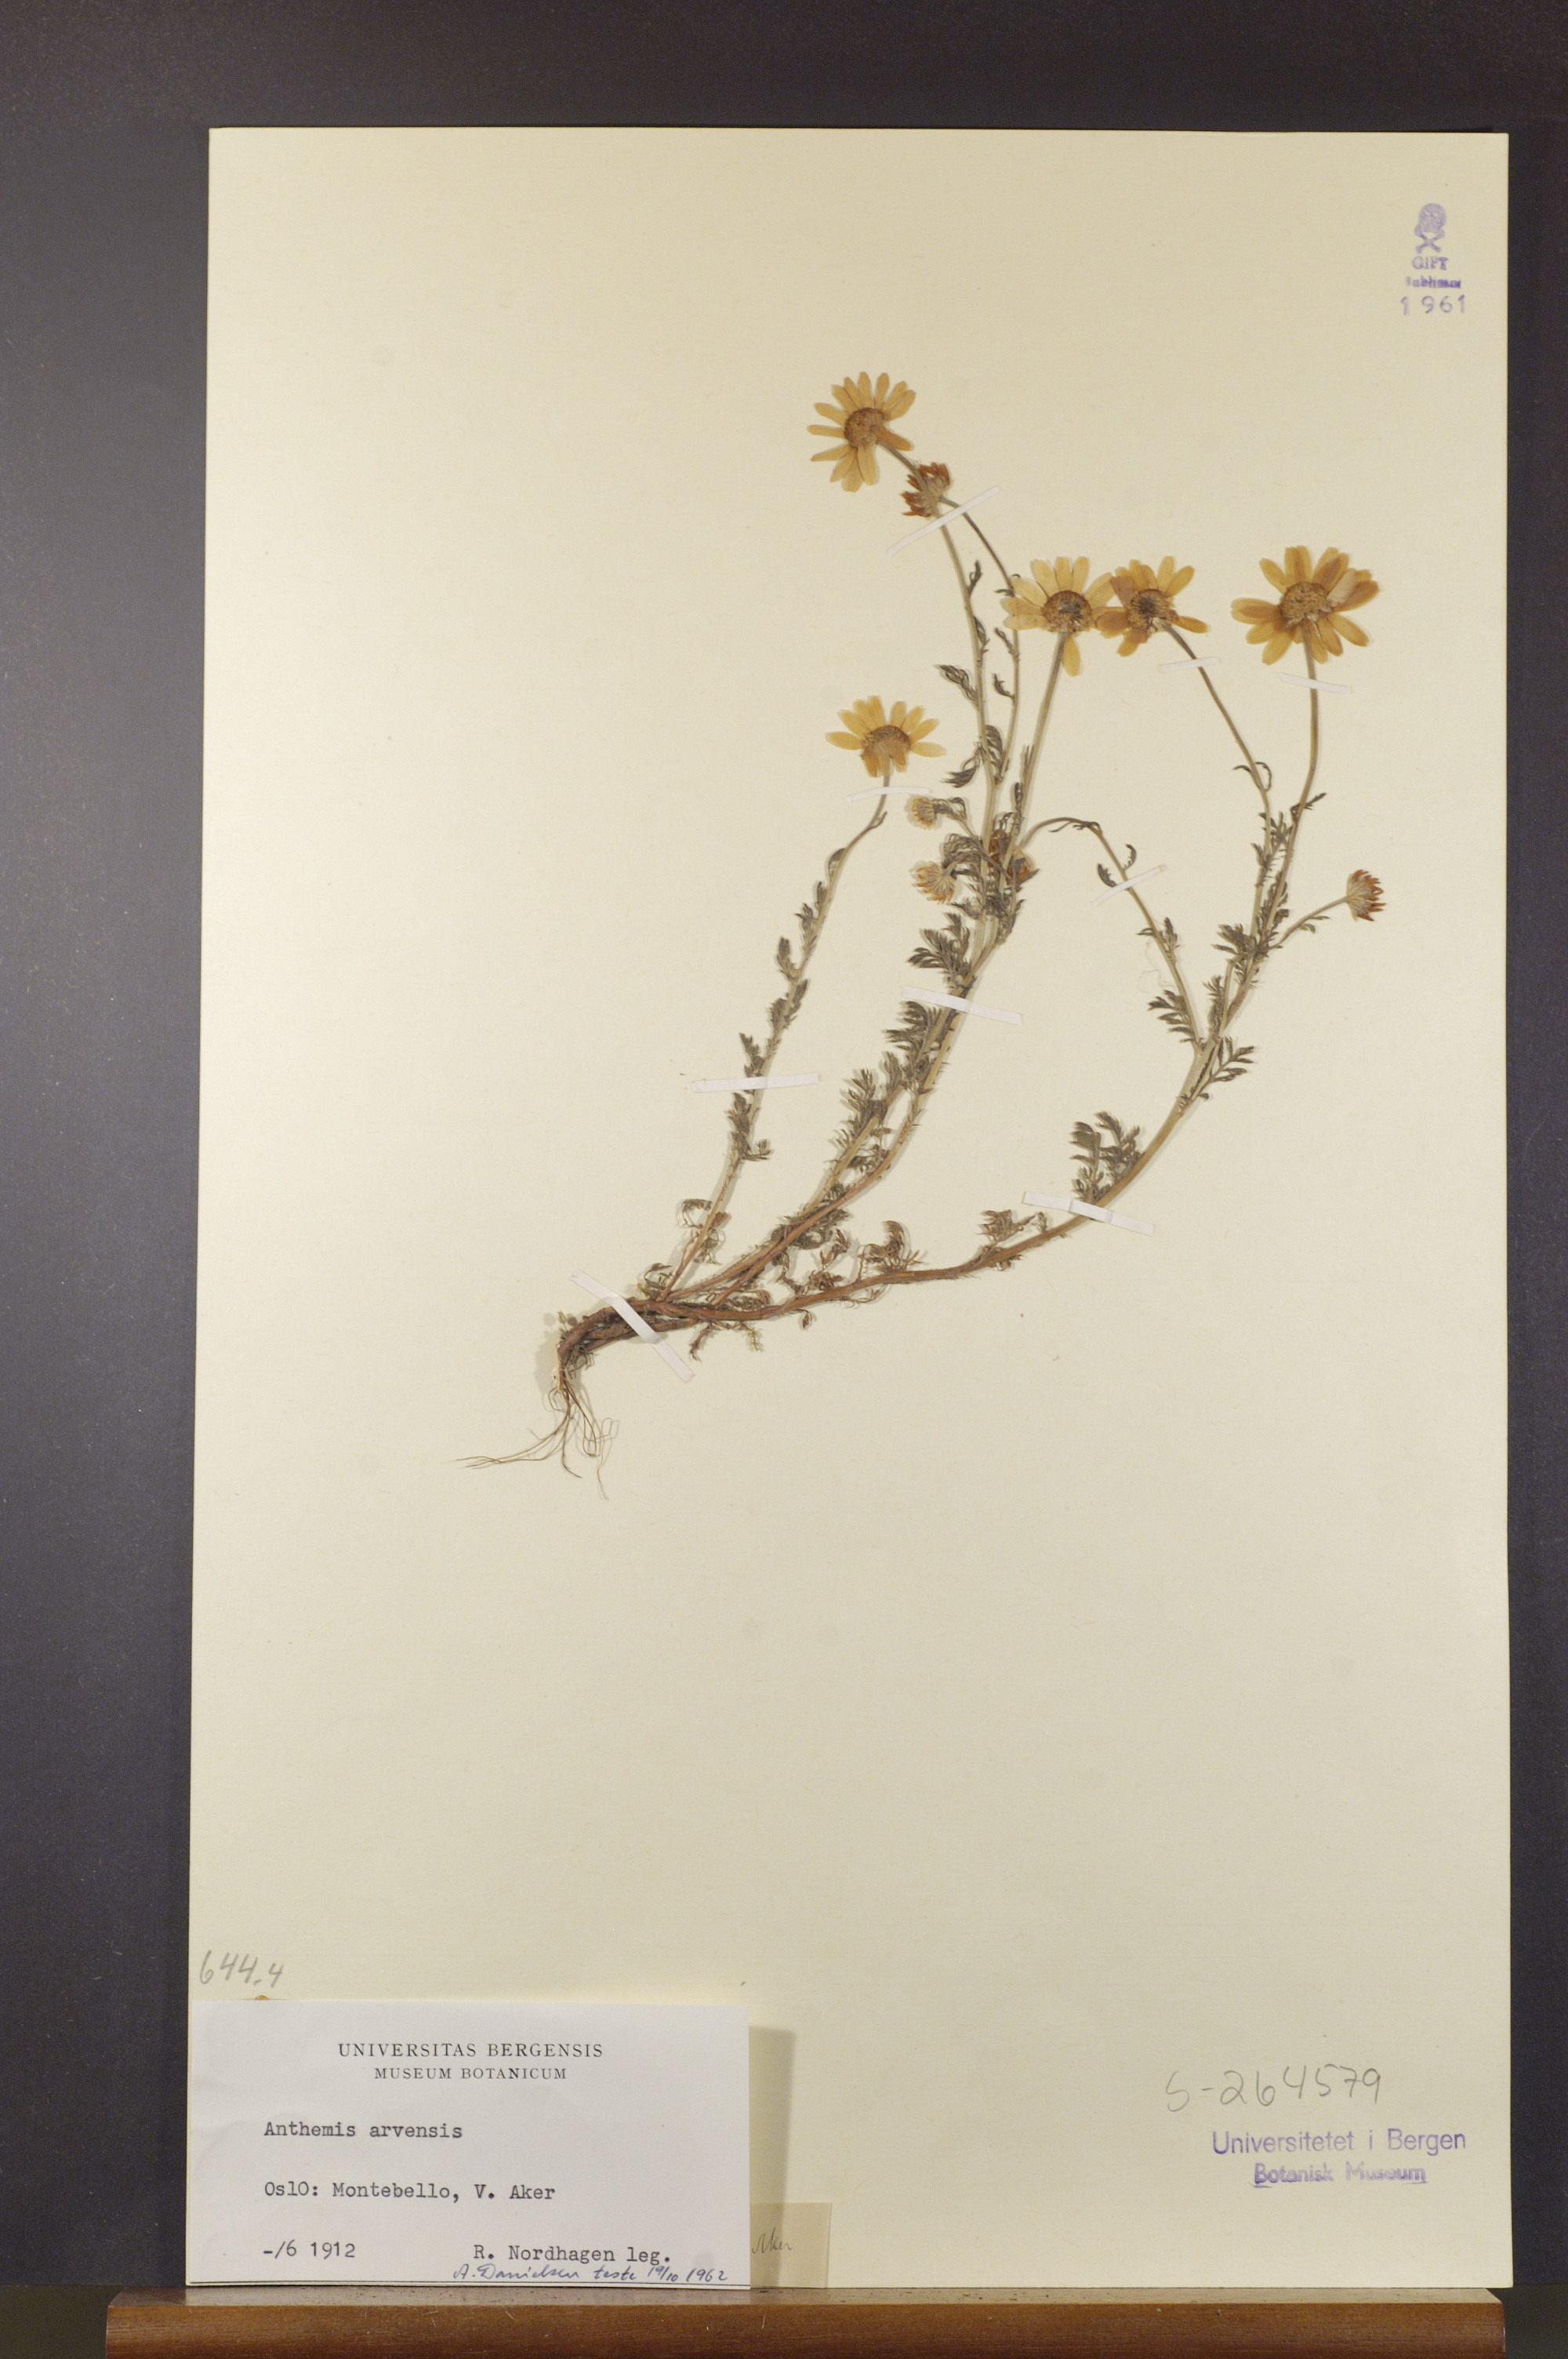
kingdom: Plantae
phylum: Tracheophyta
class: Magnoliopsida
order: Asterales
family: Asteraceae
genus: Anthemis
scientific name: Anthemis arvensis
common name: Corn chamomile
